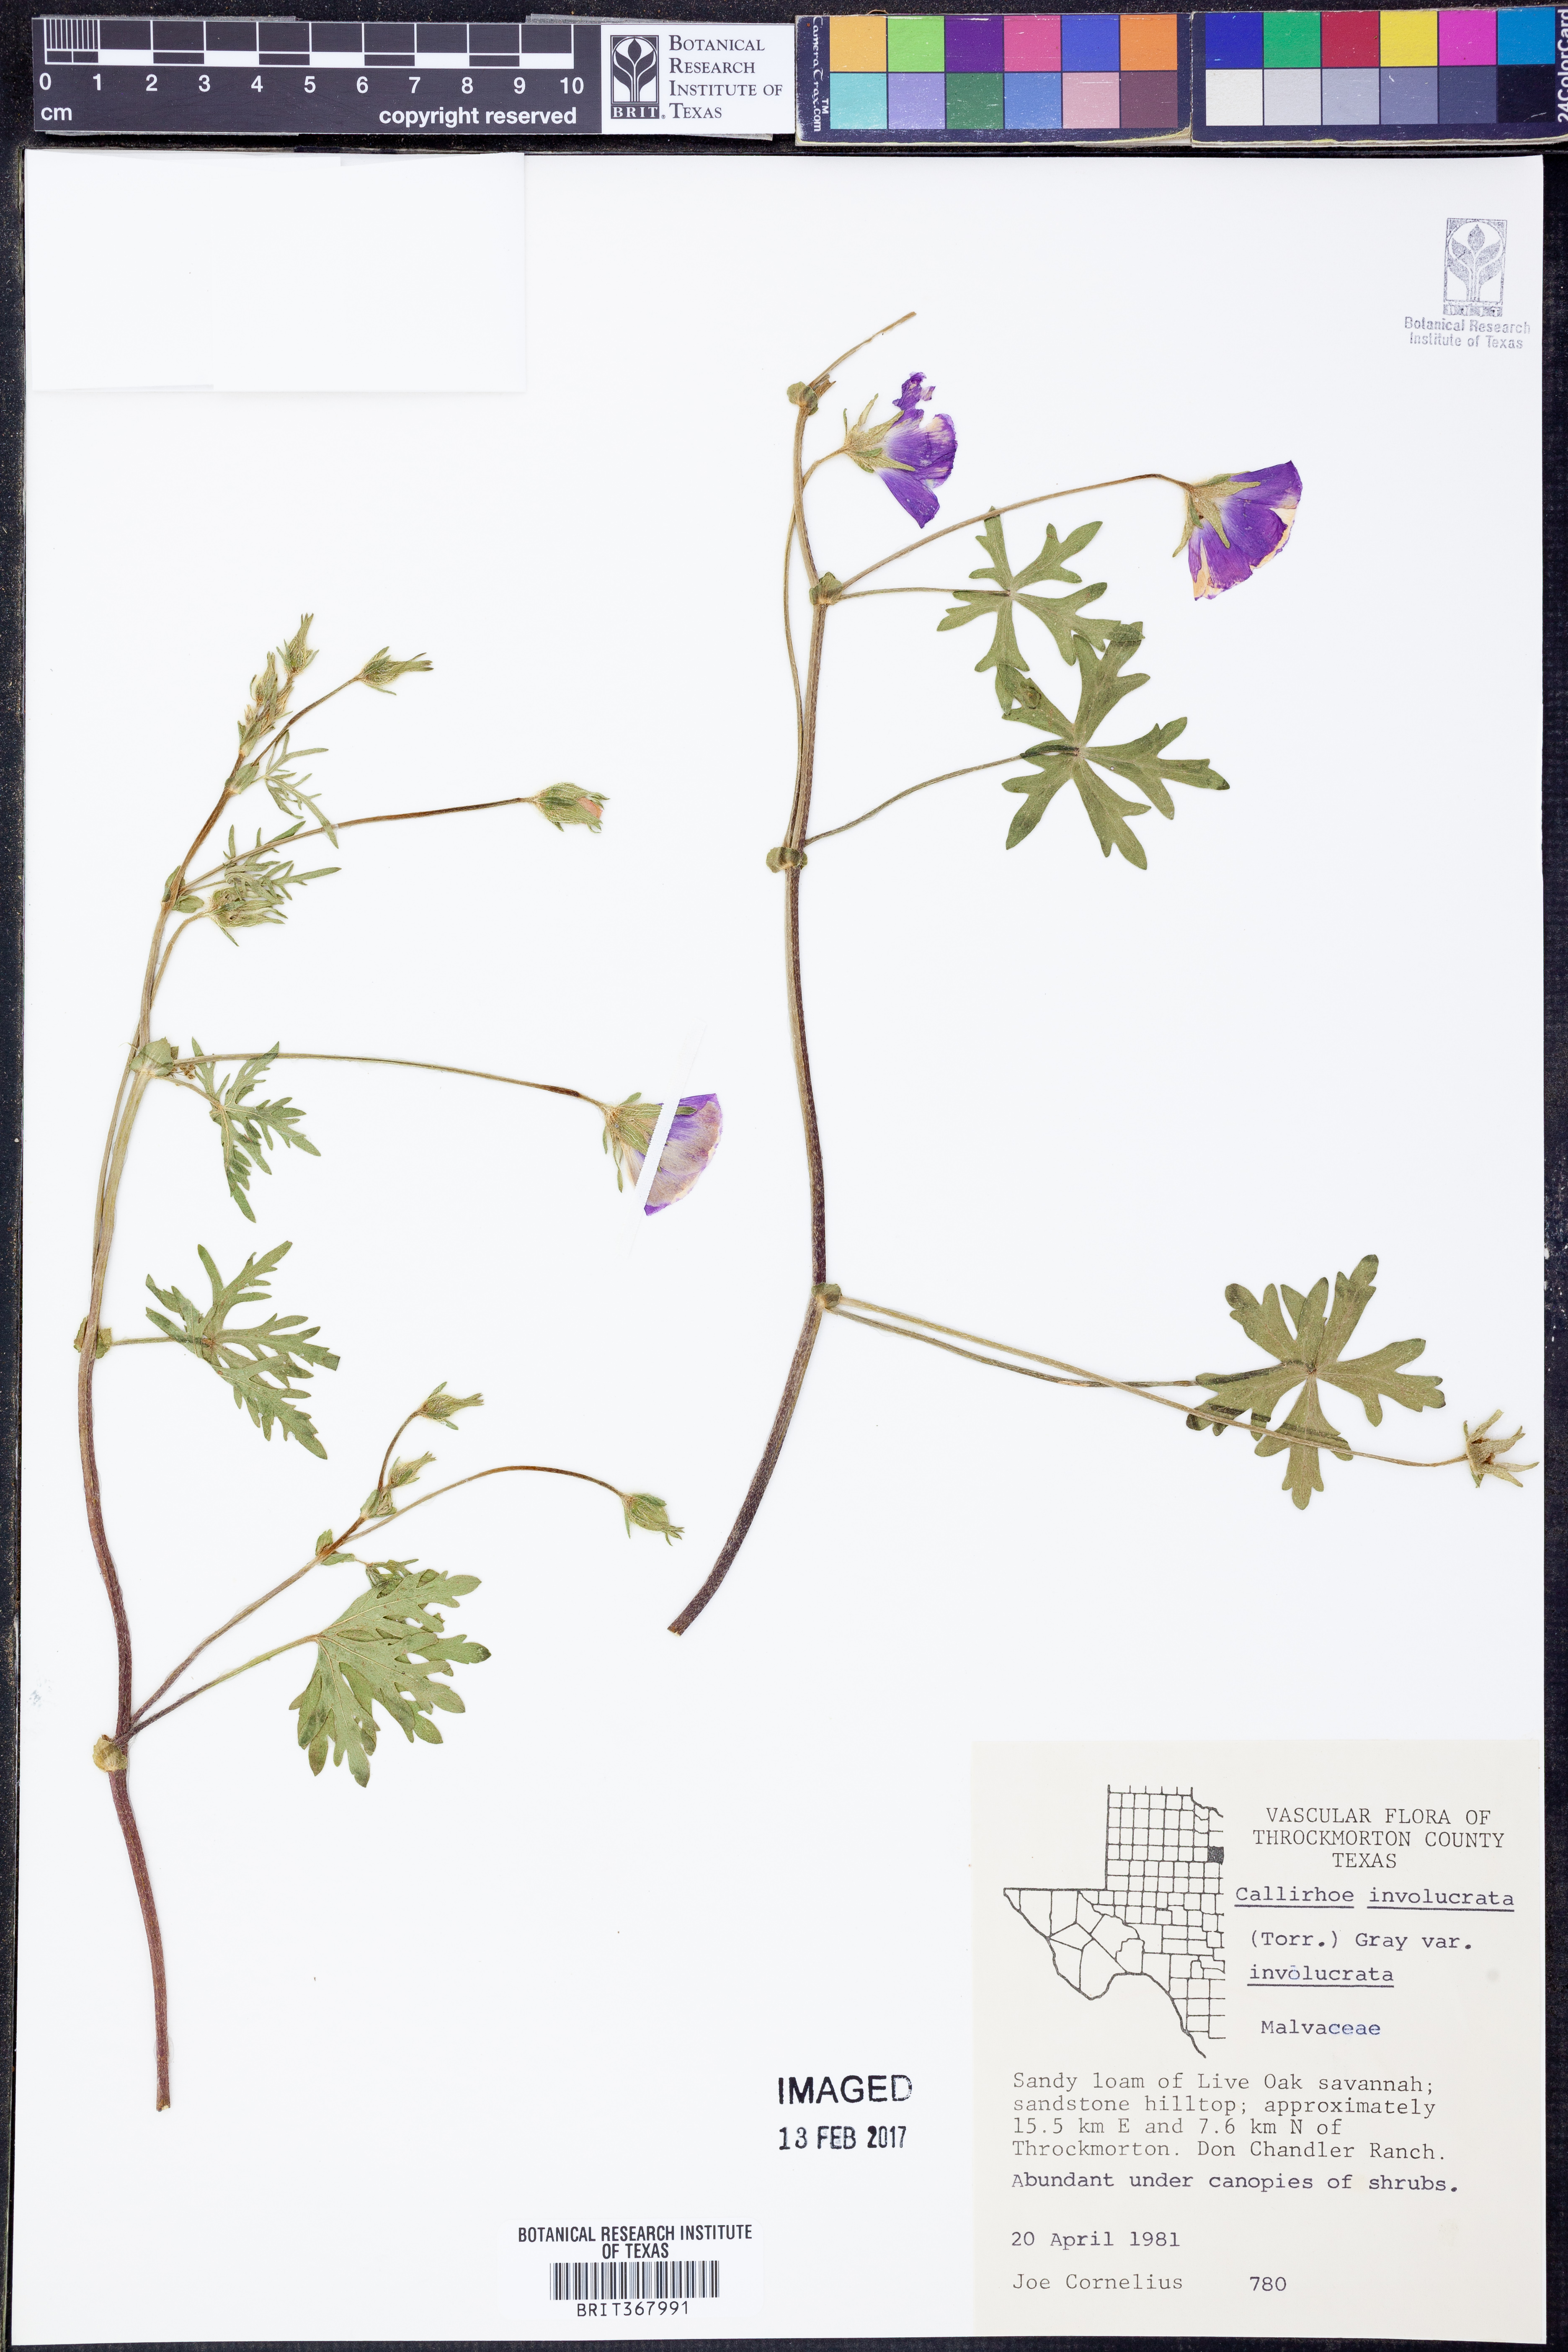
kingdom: Plantae
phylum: Tracheophyta
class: Magnoliopsida
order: Malvales
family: Malvaceae
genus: Callirhoe
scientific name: Callirhoe involucrata
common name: Purple poppy-mallow
